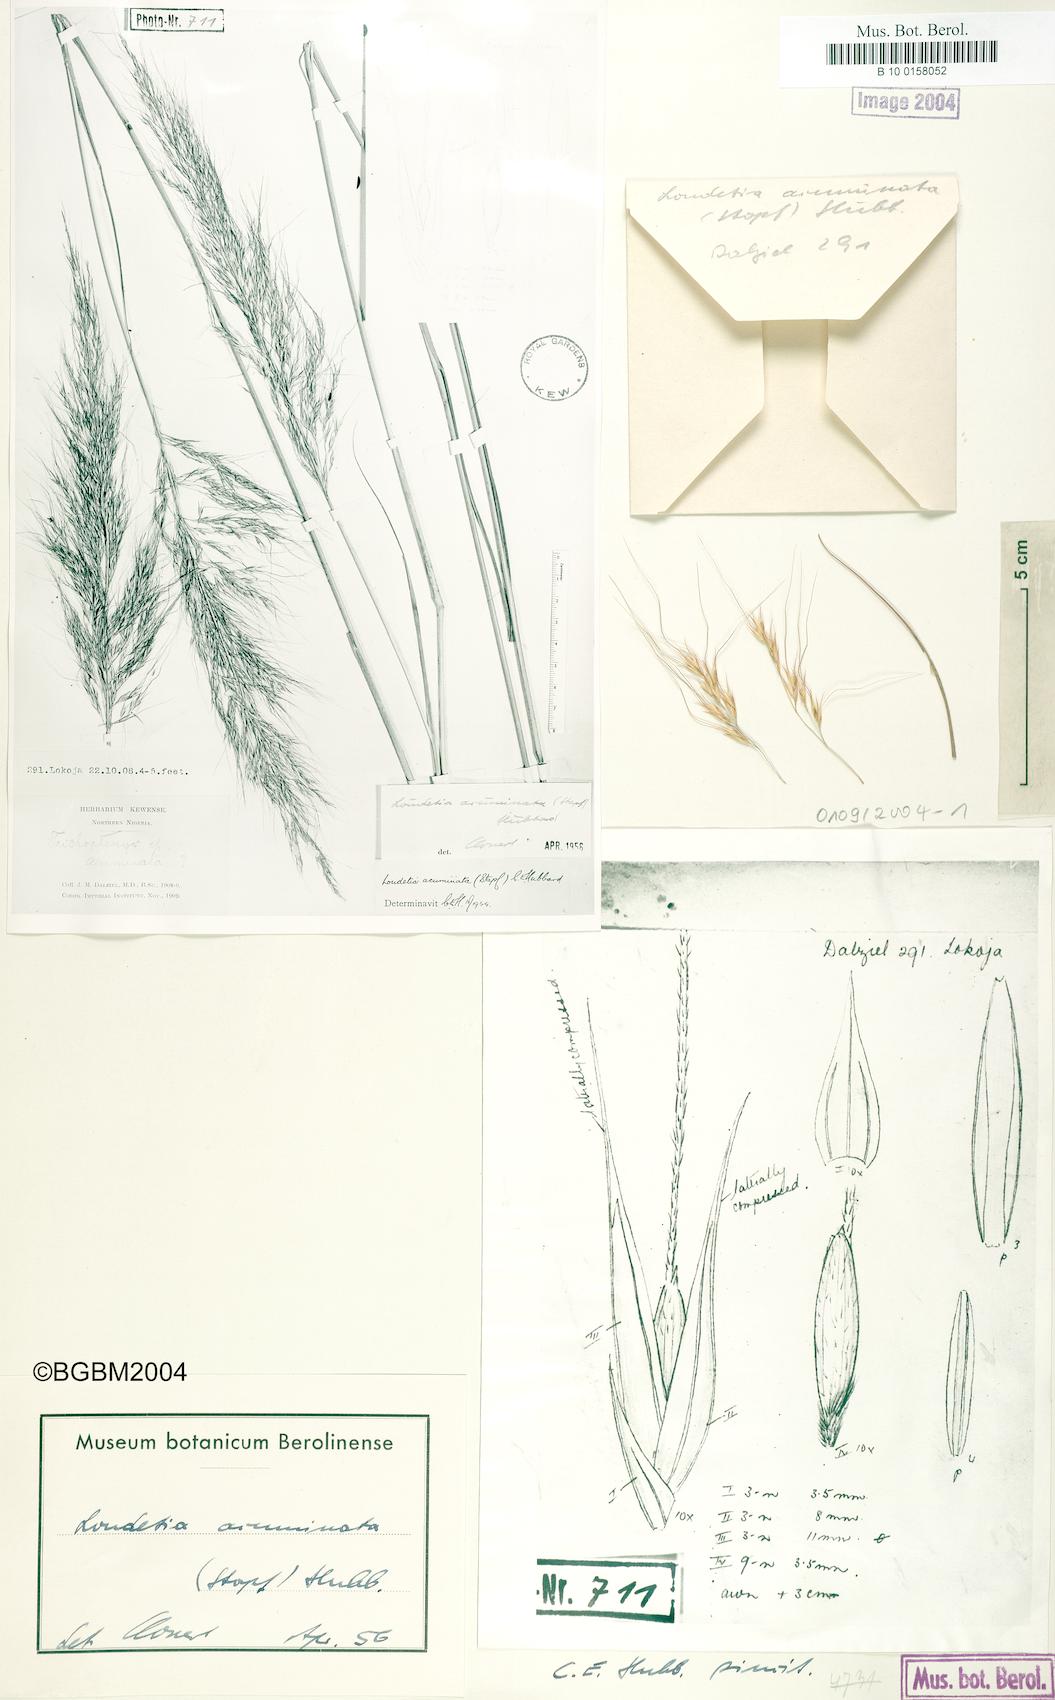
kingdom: Plantae
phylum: Tracheophyta
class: Liliopsida
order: Poales
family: Poaceae
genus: Loudetia
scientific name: Loudetia flavida
